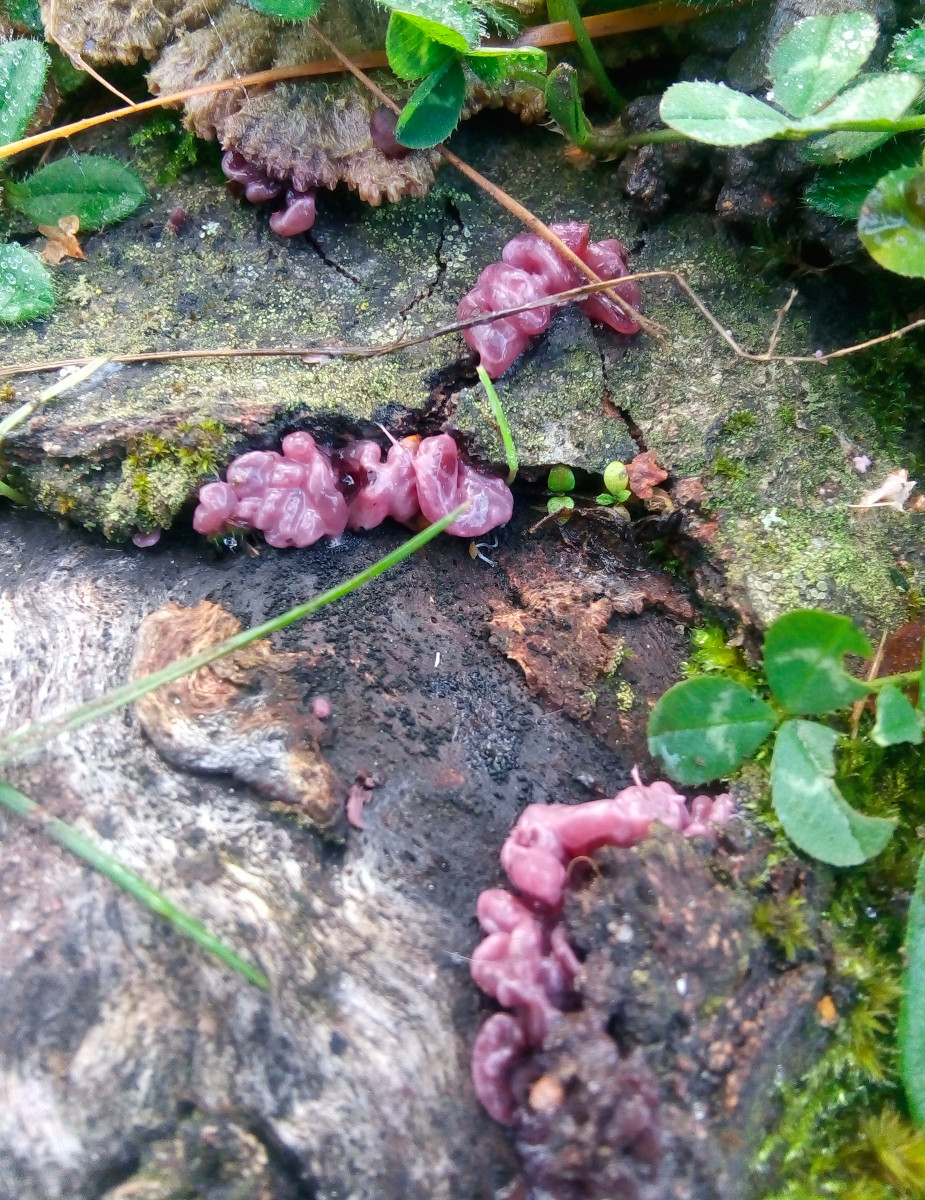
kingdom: Fungi
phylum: Ascomycota
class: Leotiomycetes
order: Helotiales
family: Gelatinodiscaceae
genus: Ascocoryne
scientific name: Ascocoryne sarcoides
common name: rødlilla sejskive
